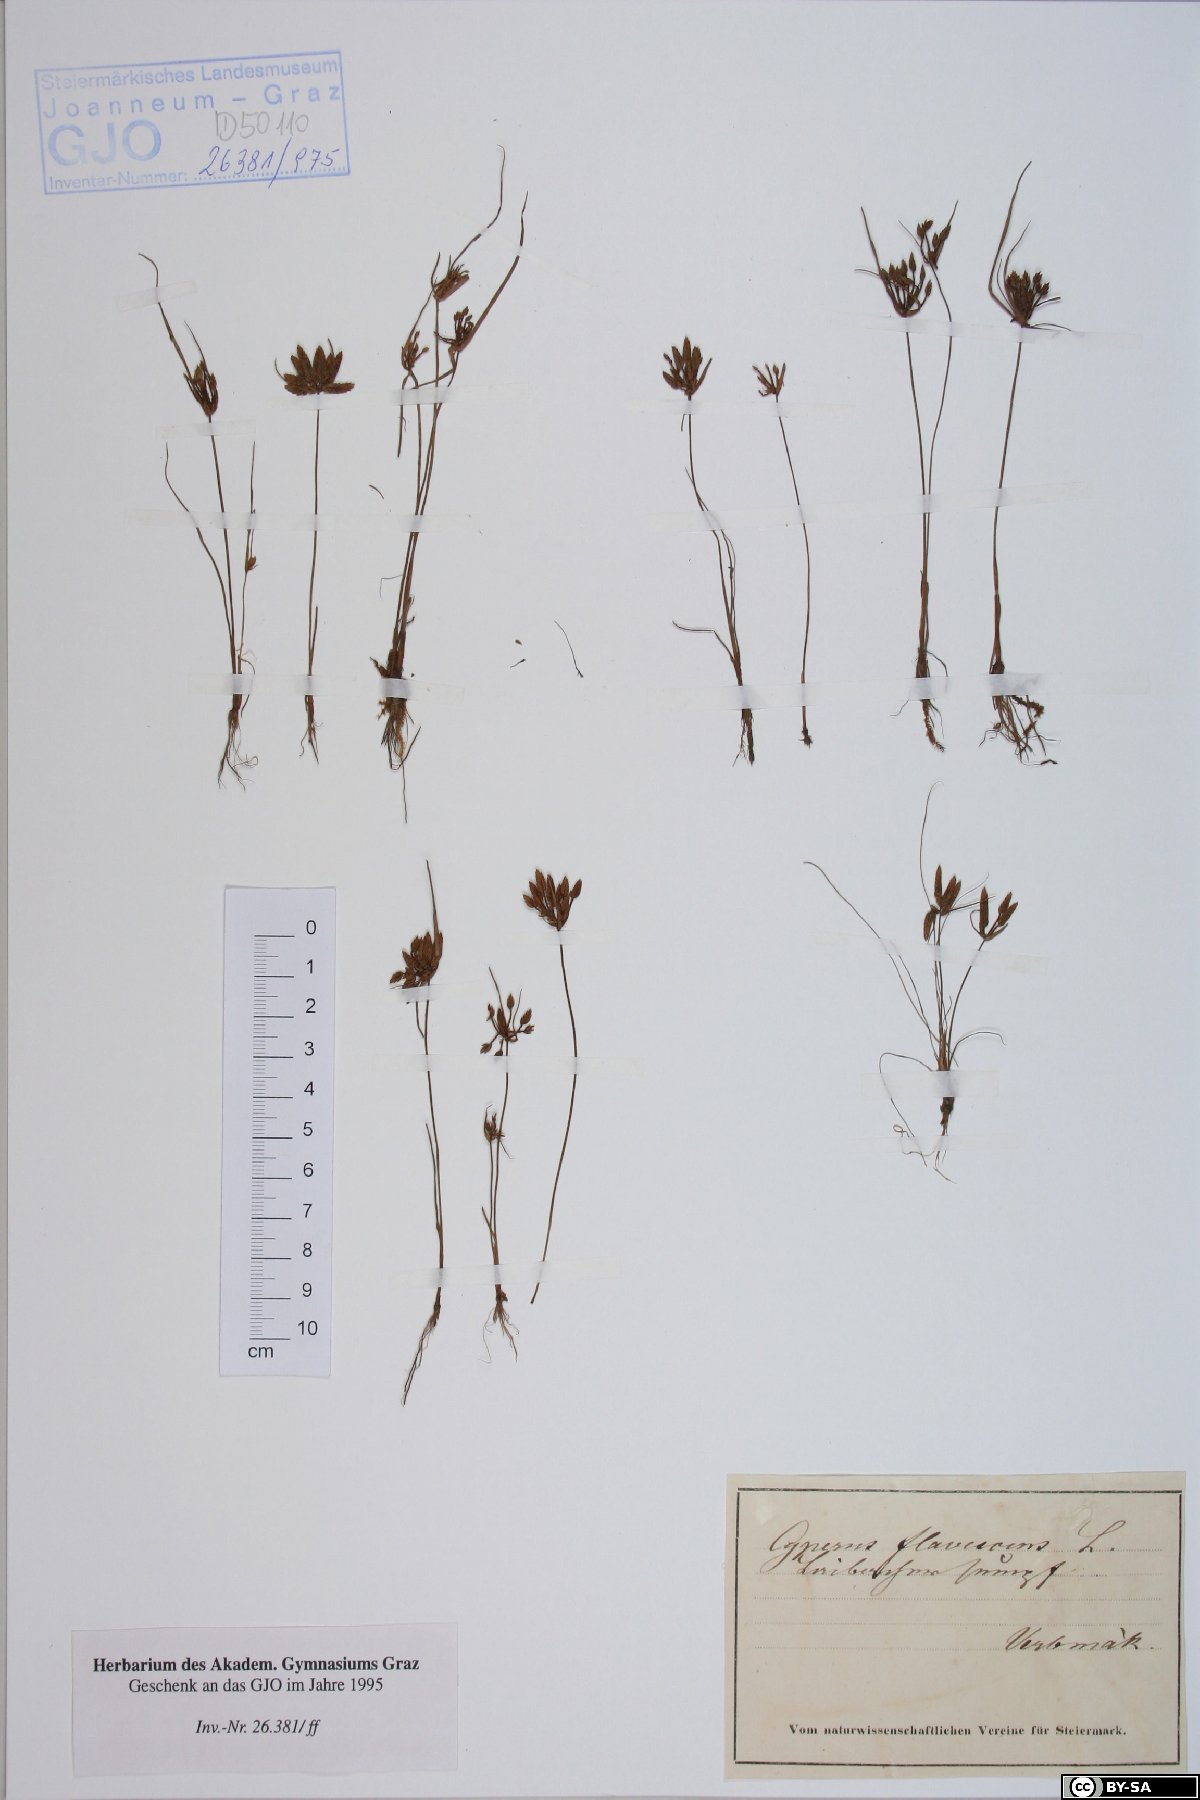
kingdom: Plantae
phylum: Tracheophyta
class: Liliopsida
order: Poales
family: Cyperaceae
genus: Cyperus
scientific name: Cyperus flavescens
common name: Yellow galingale
